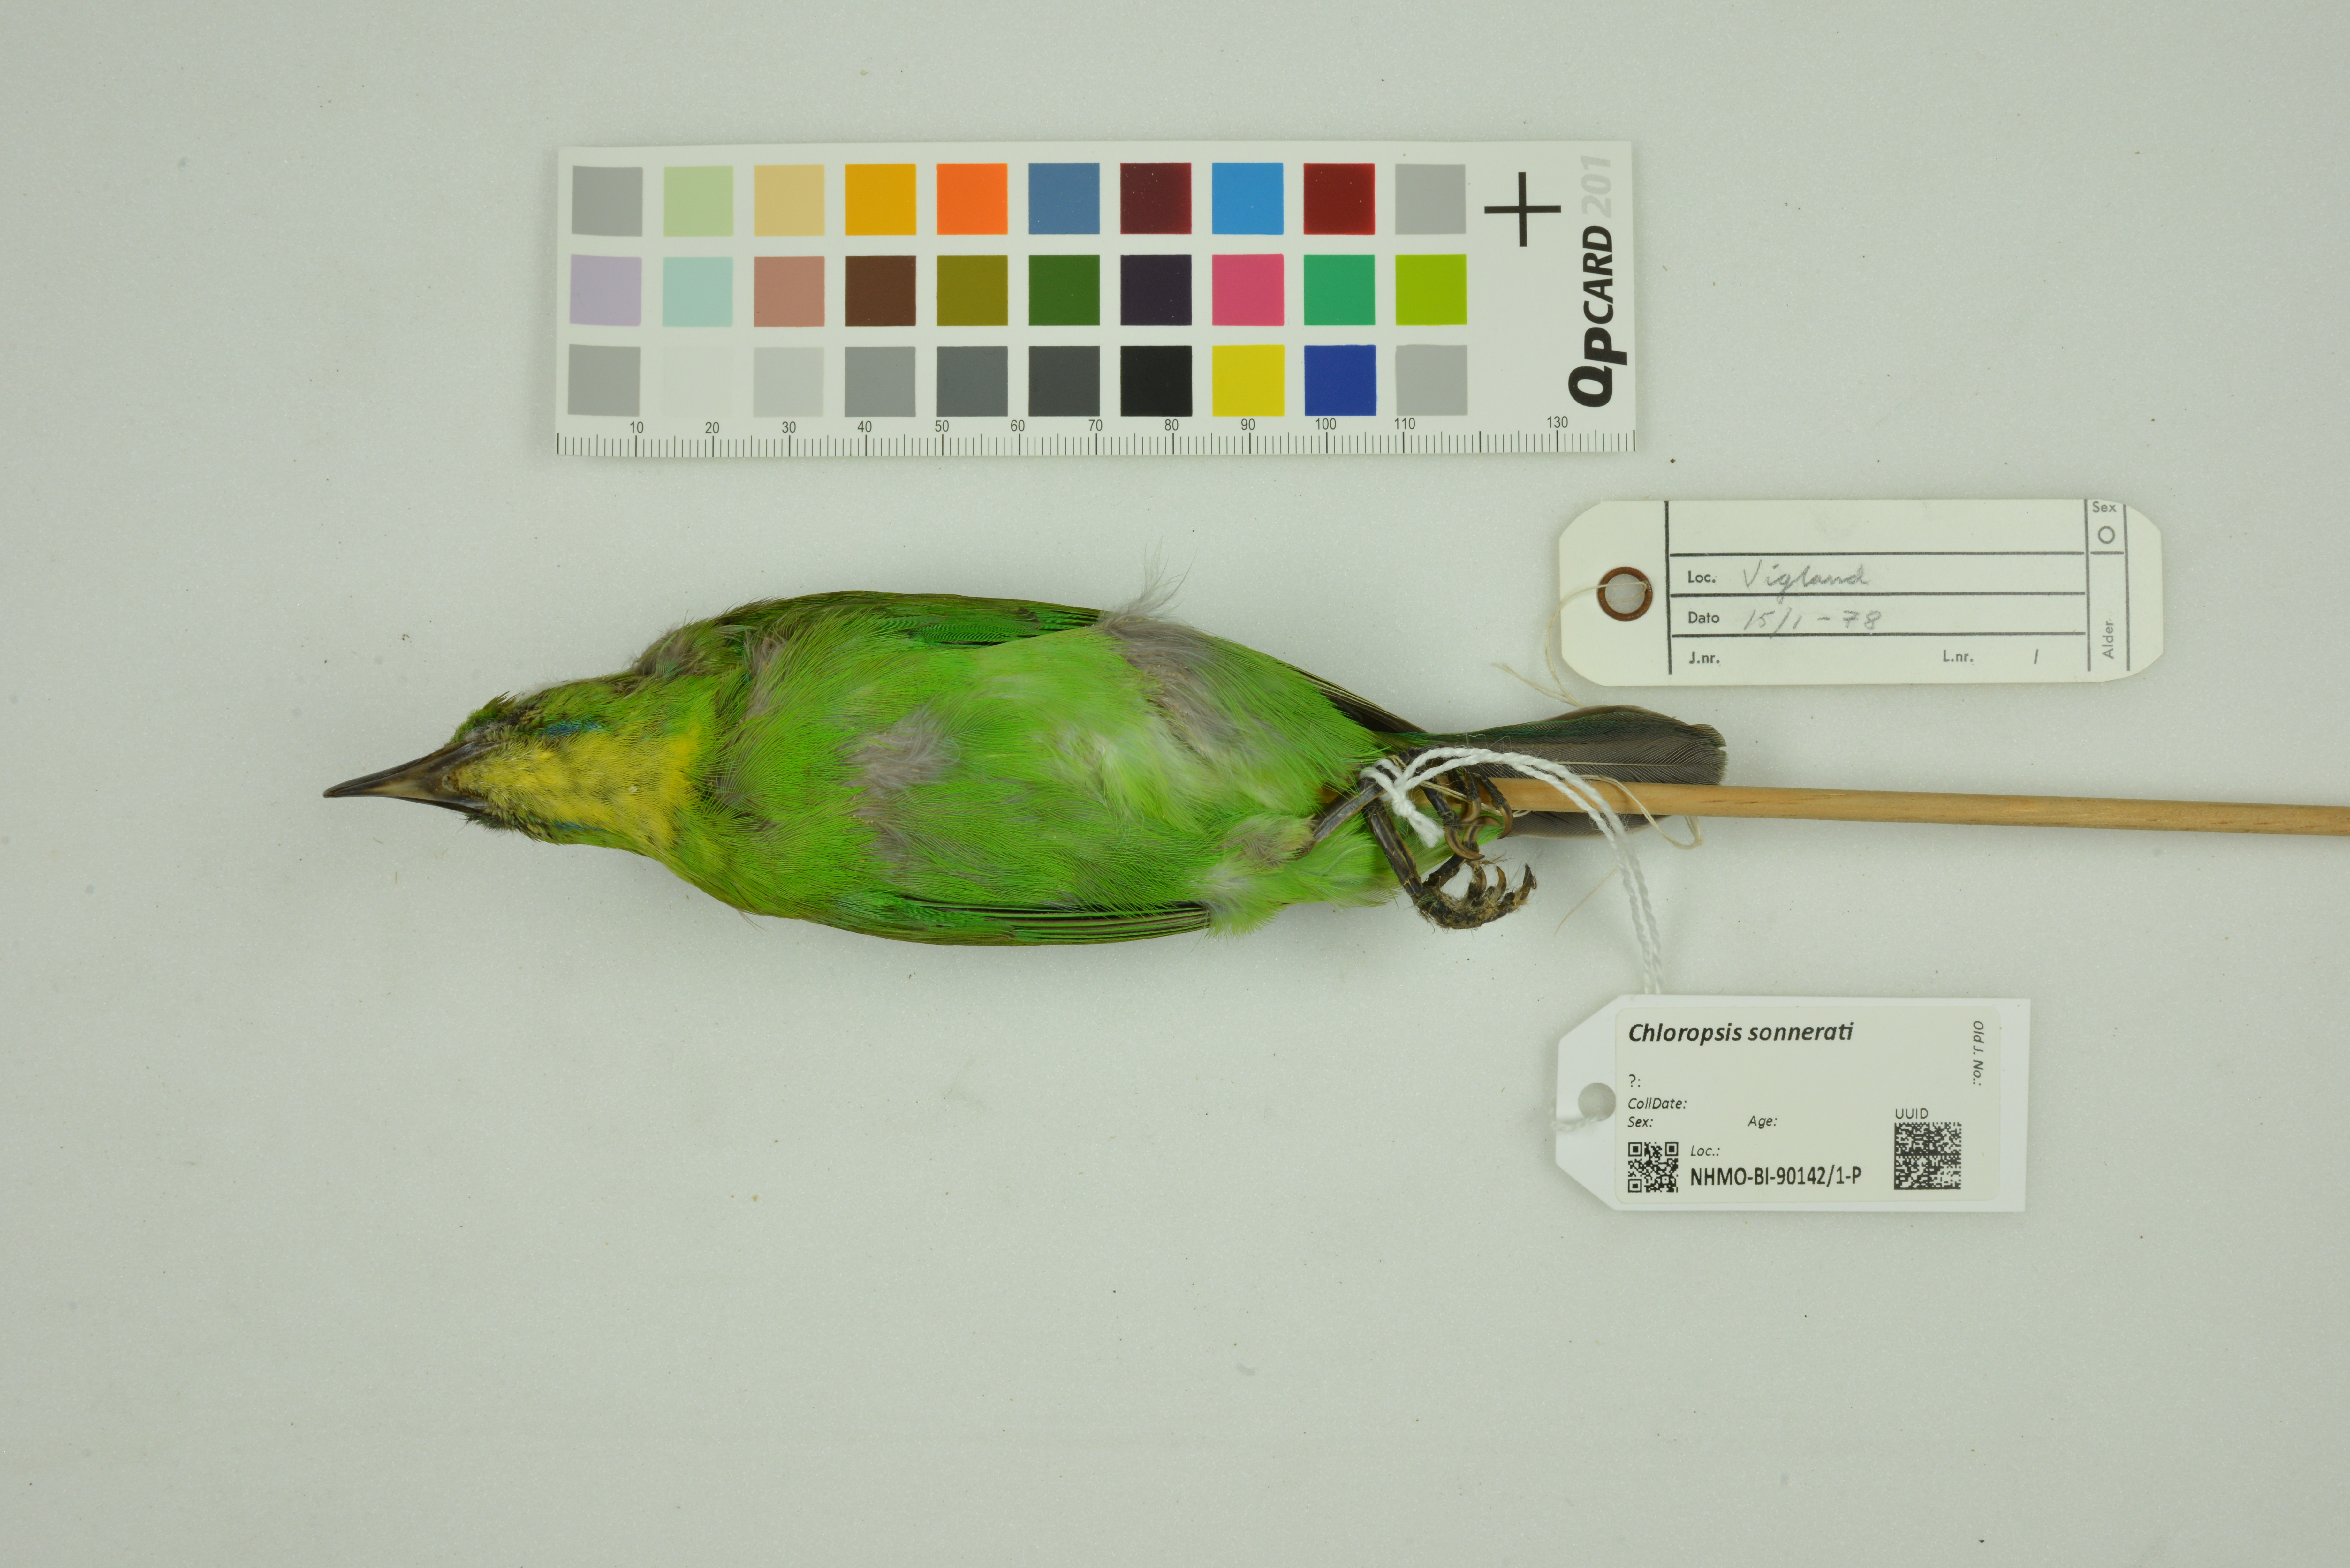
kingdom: Animalia
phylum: Chordata
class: Aves
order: Passeriformes
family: Chloropseidae
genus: Chloropsis
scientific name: Chloropsis sonnerati
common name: Greater green leafbird
